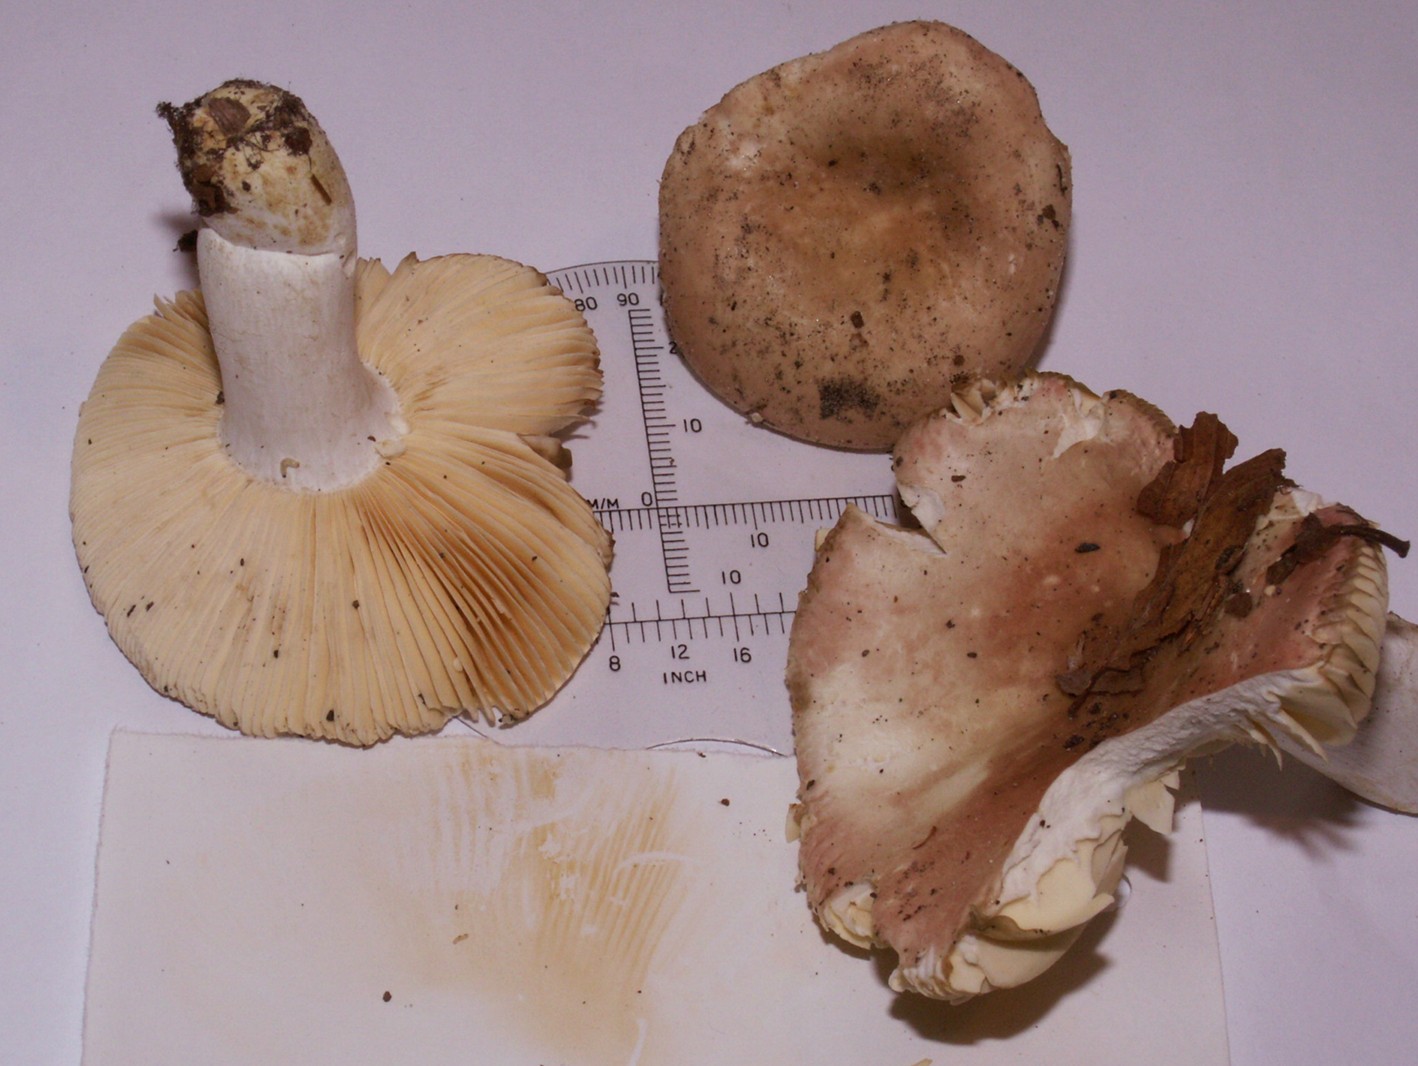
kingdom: Fungi
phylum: Basidiomycota
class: Agaricomycetes
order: Russulales
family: Russulaceae
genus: Russula
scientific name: Russula veternosa
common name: blødkødet skørhat
